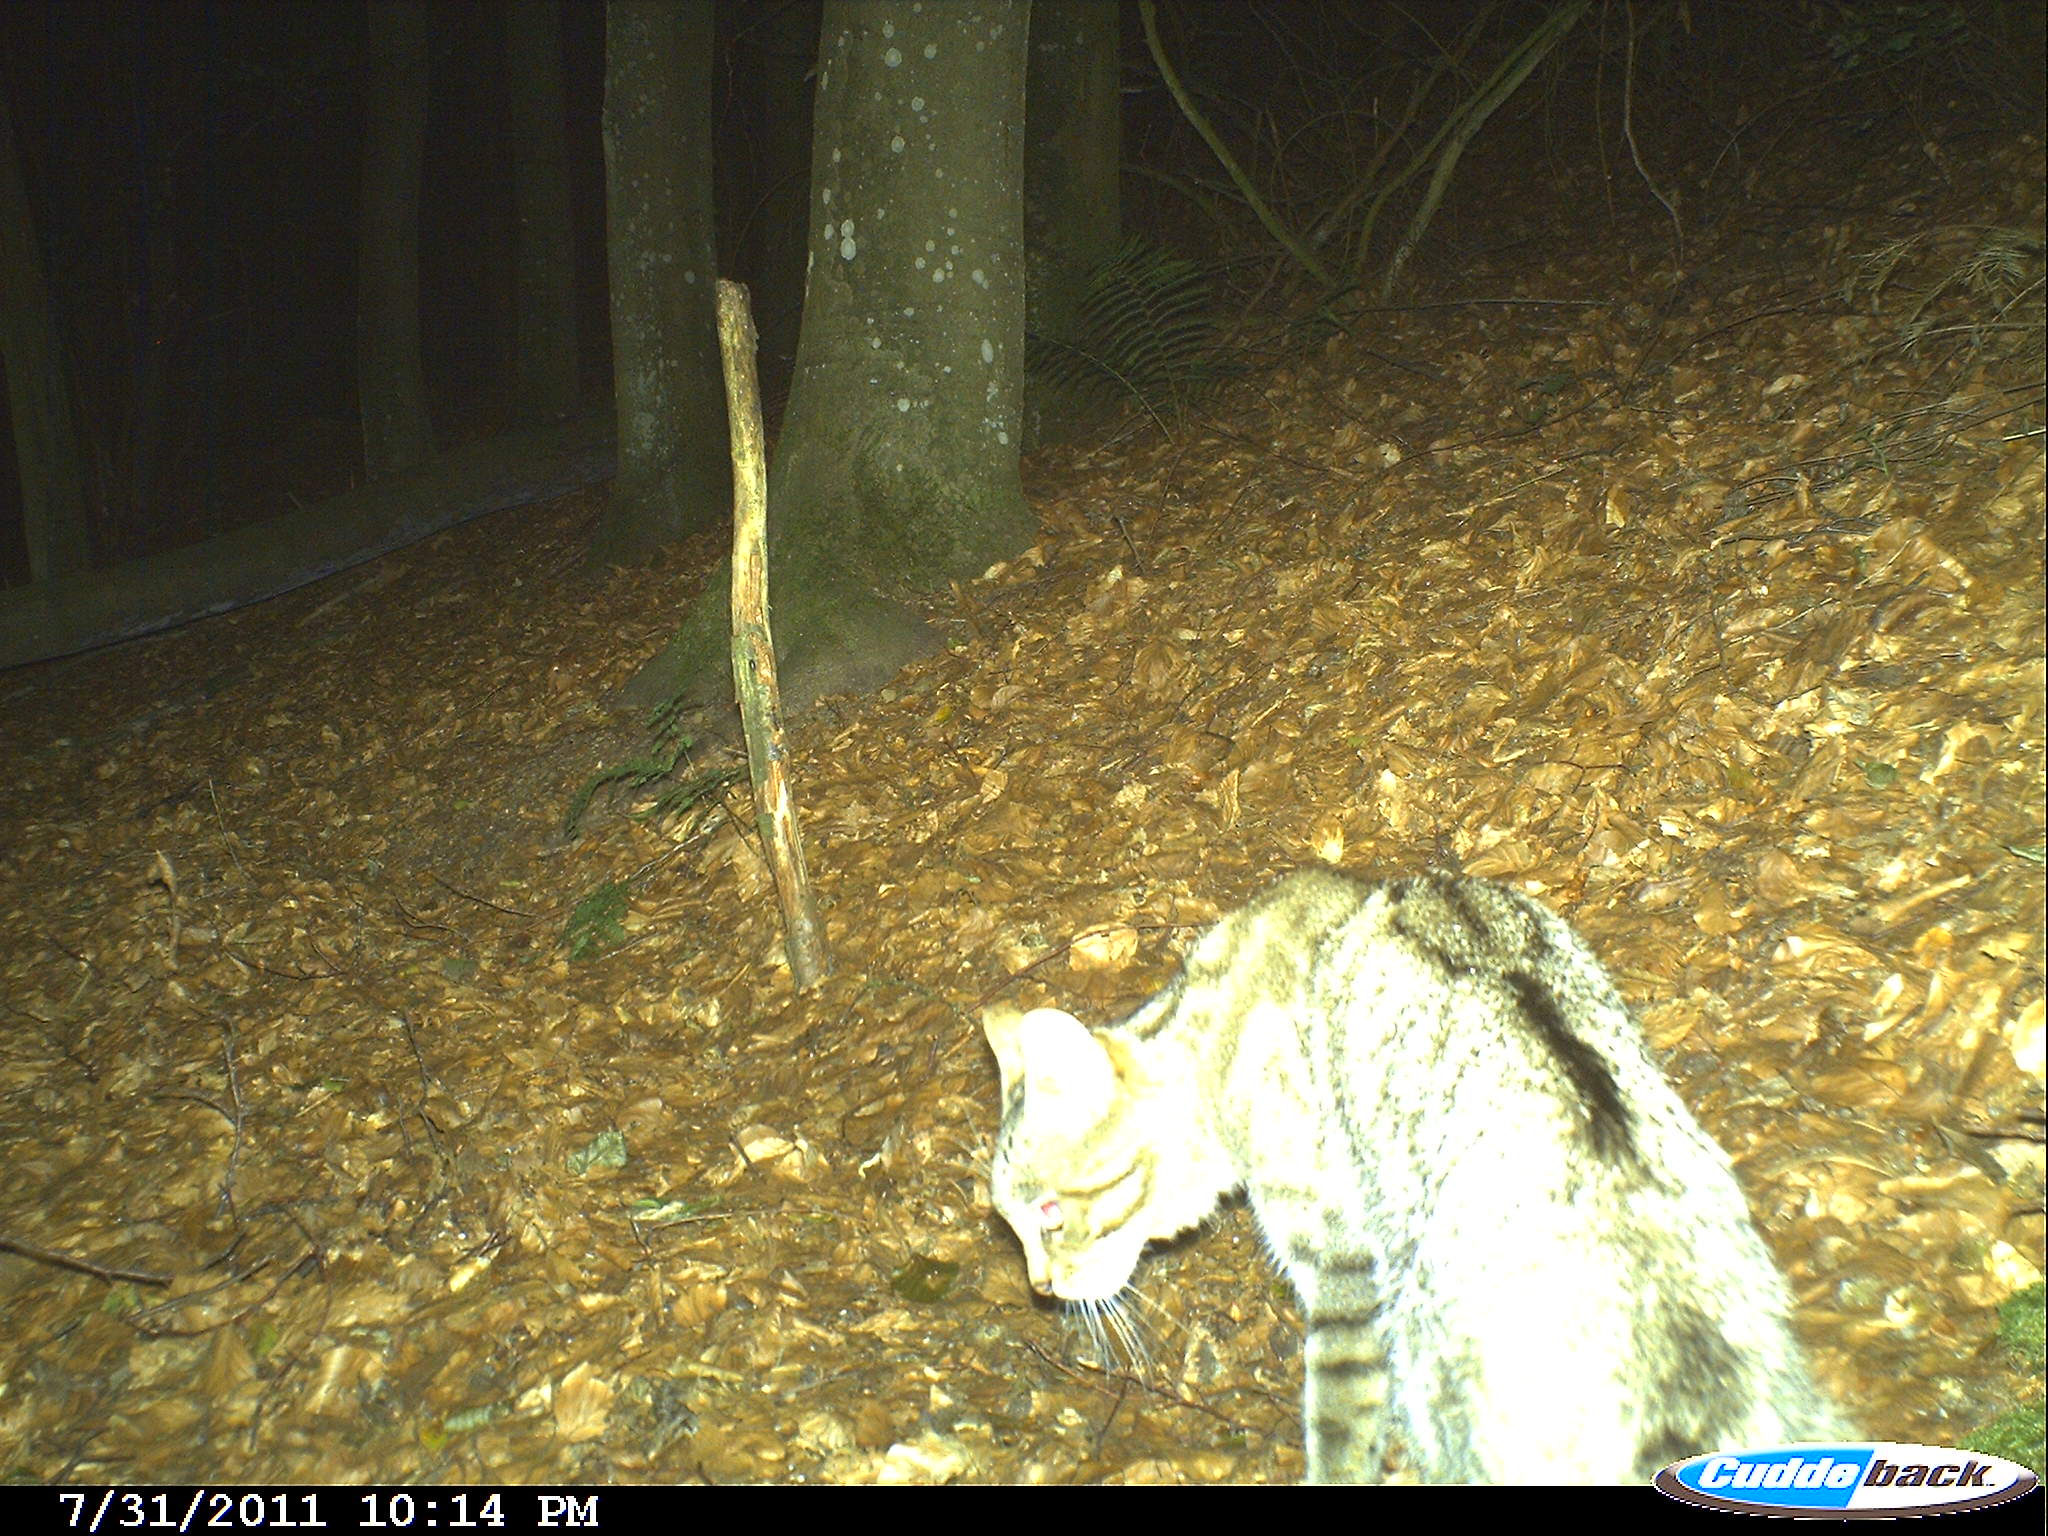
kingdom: Animalia
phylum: Chordata
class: Mammalia
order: Carnivora
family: Felidae
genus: Felis
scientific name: Felis silvestris
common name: Wildcat
